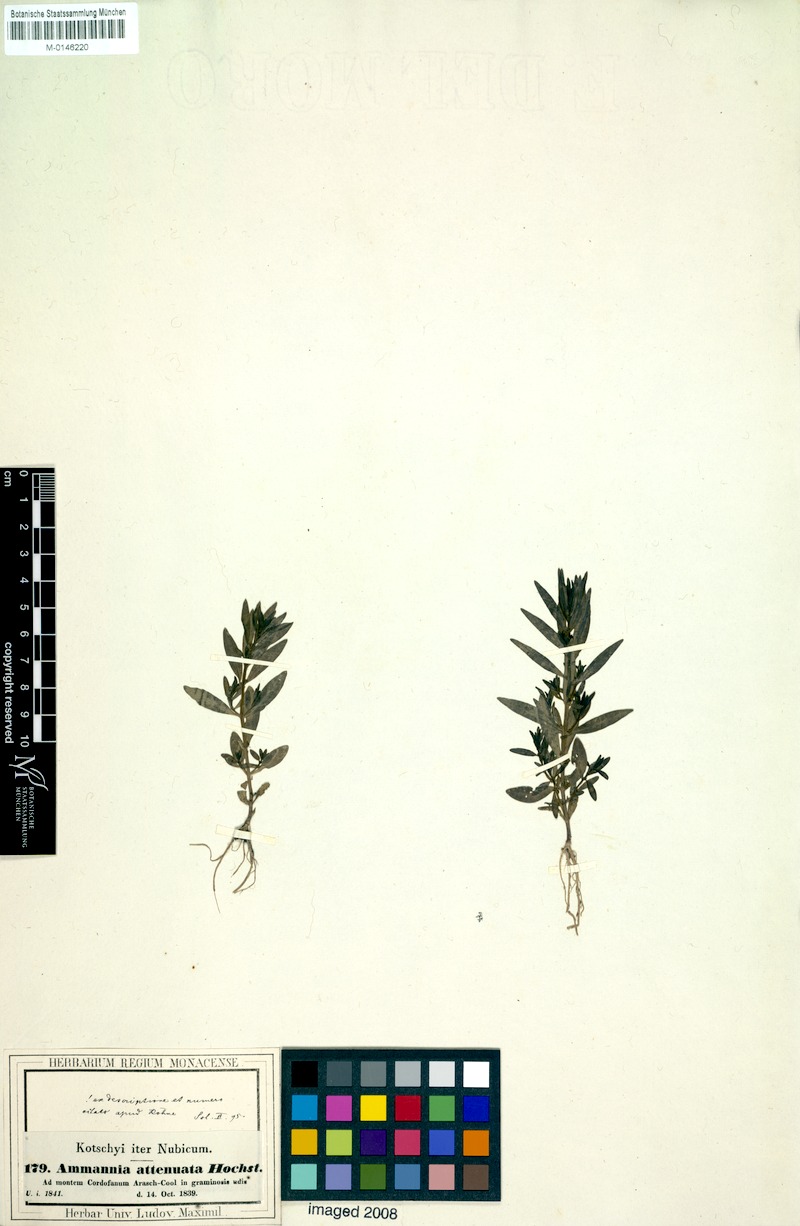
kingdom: Plantae
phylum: Tracheophyta
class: Magnoliopsida
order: Myrtales
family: Lythraceae
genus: Ammannia
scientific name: Ammannia baccifera
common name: Blistering ammania
